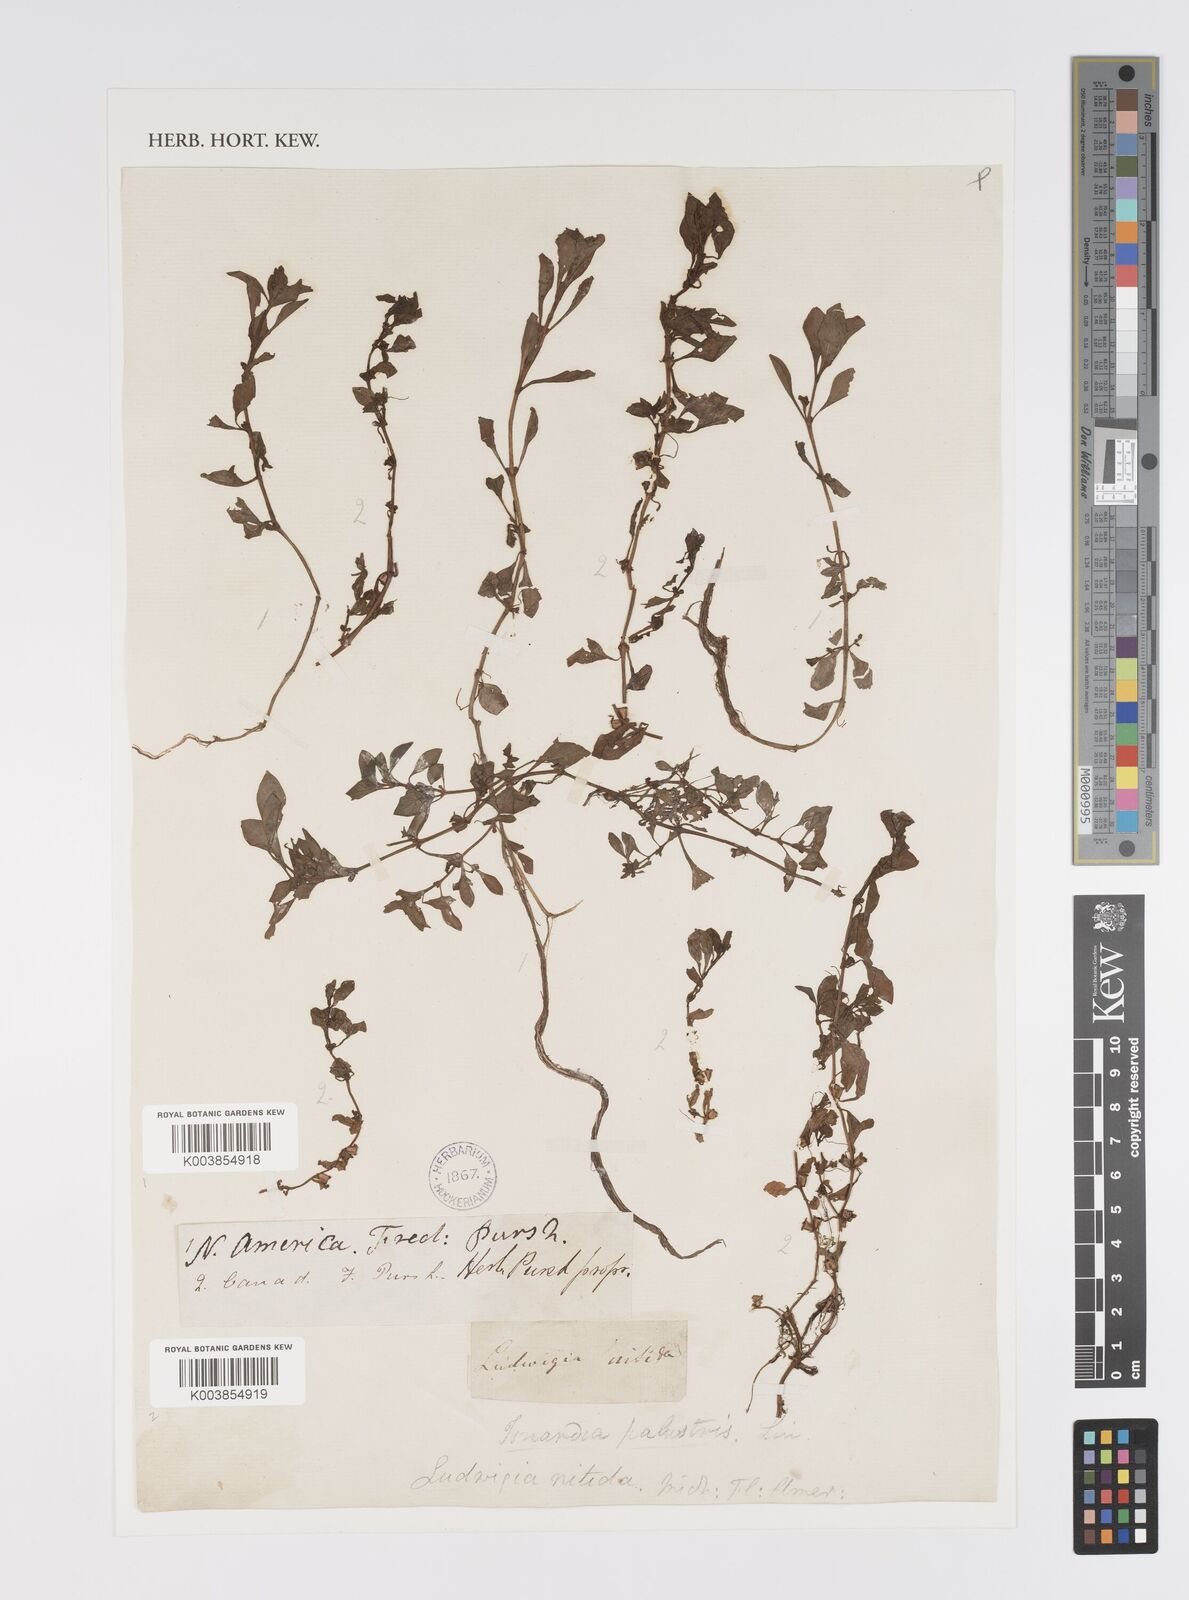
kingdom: Plantae
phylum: Tracheophyta
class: Magnoliopsida
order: Myrtales
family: Onagraceae
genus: Ludwigia
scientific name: Ludwigia palustris
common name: Hampshire-purslane
